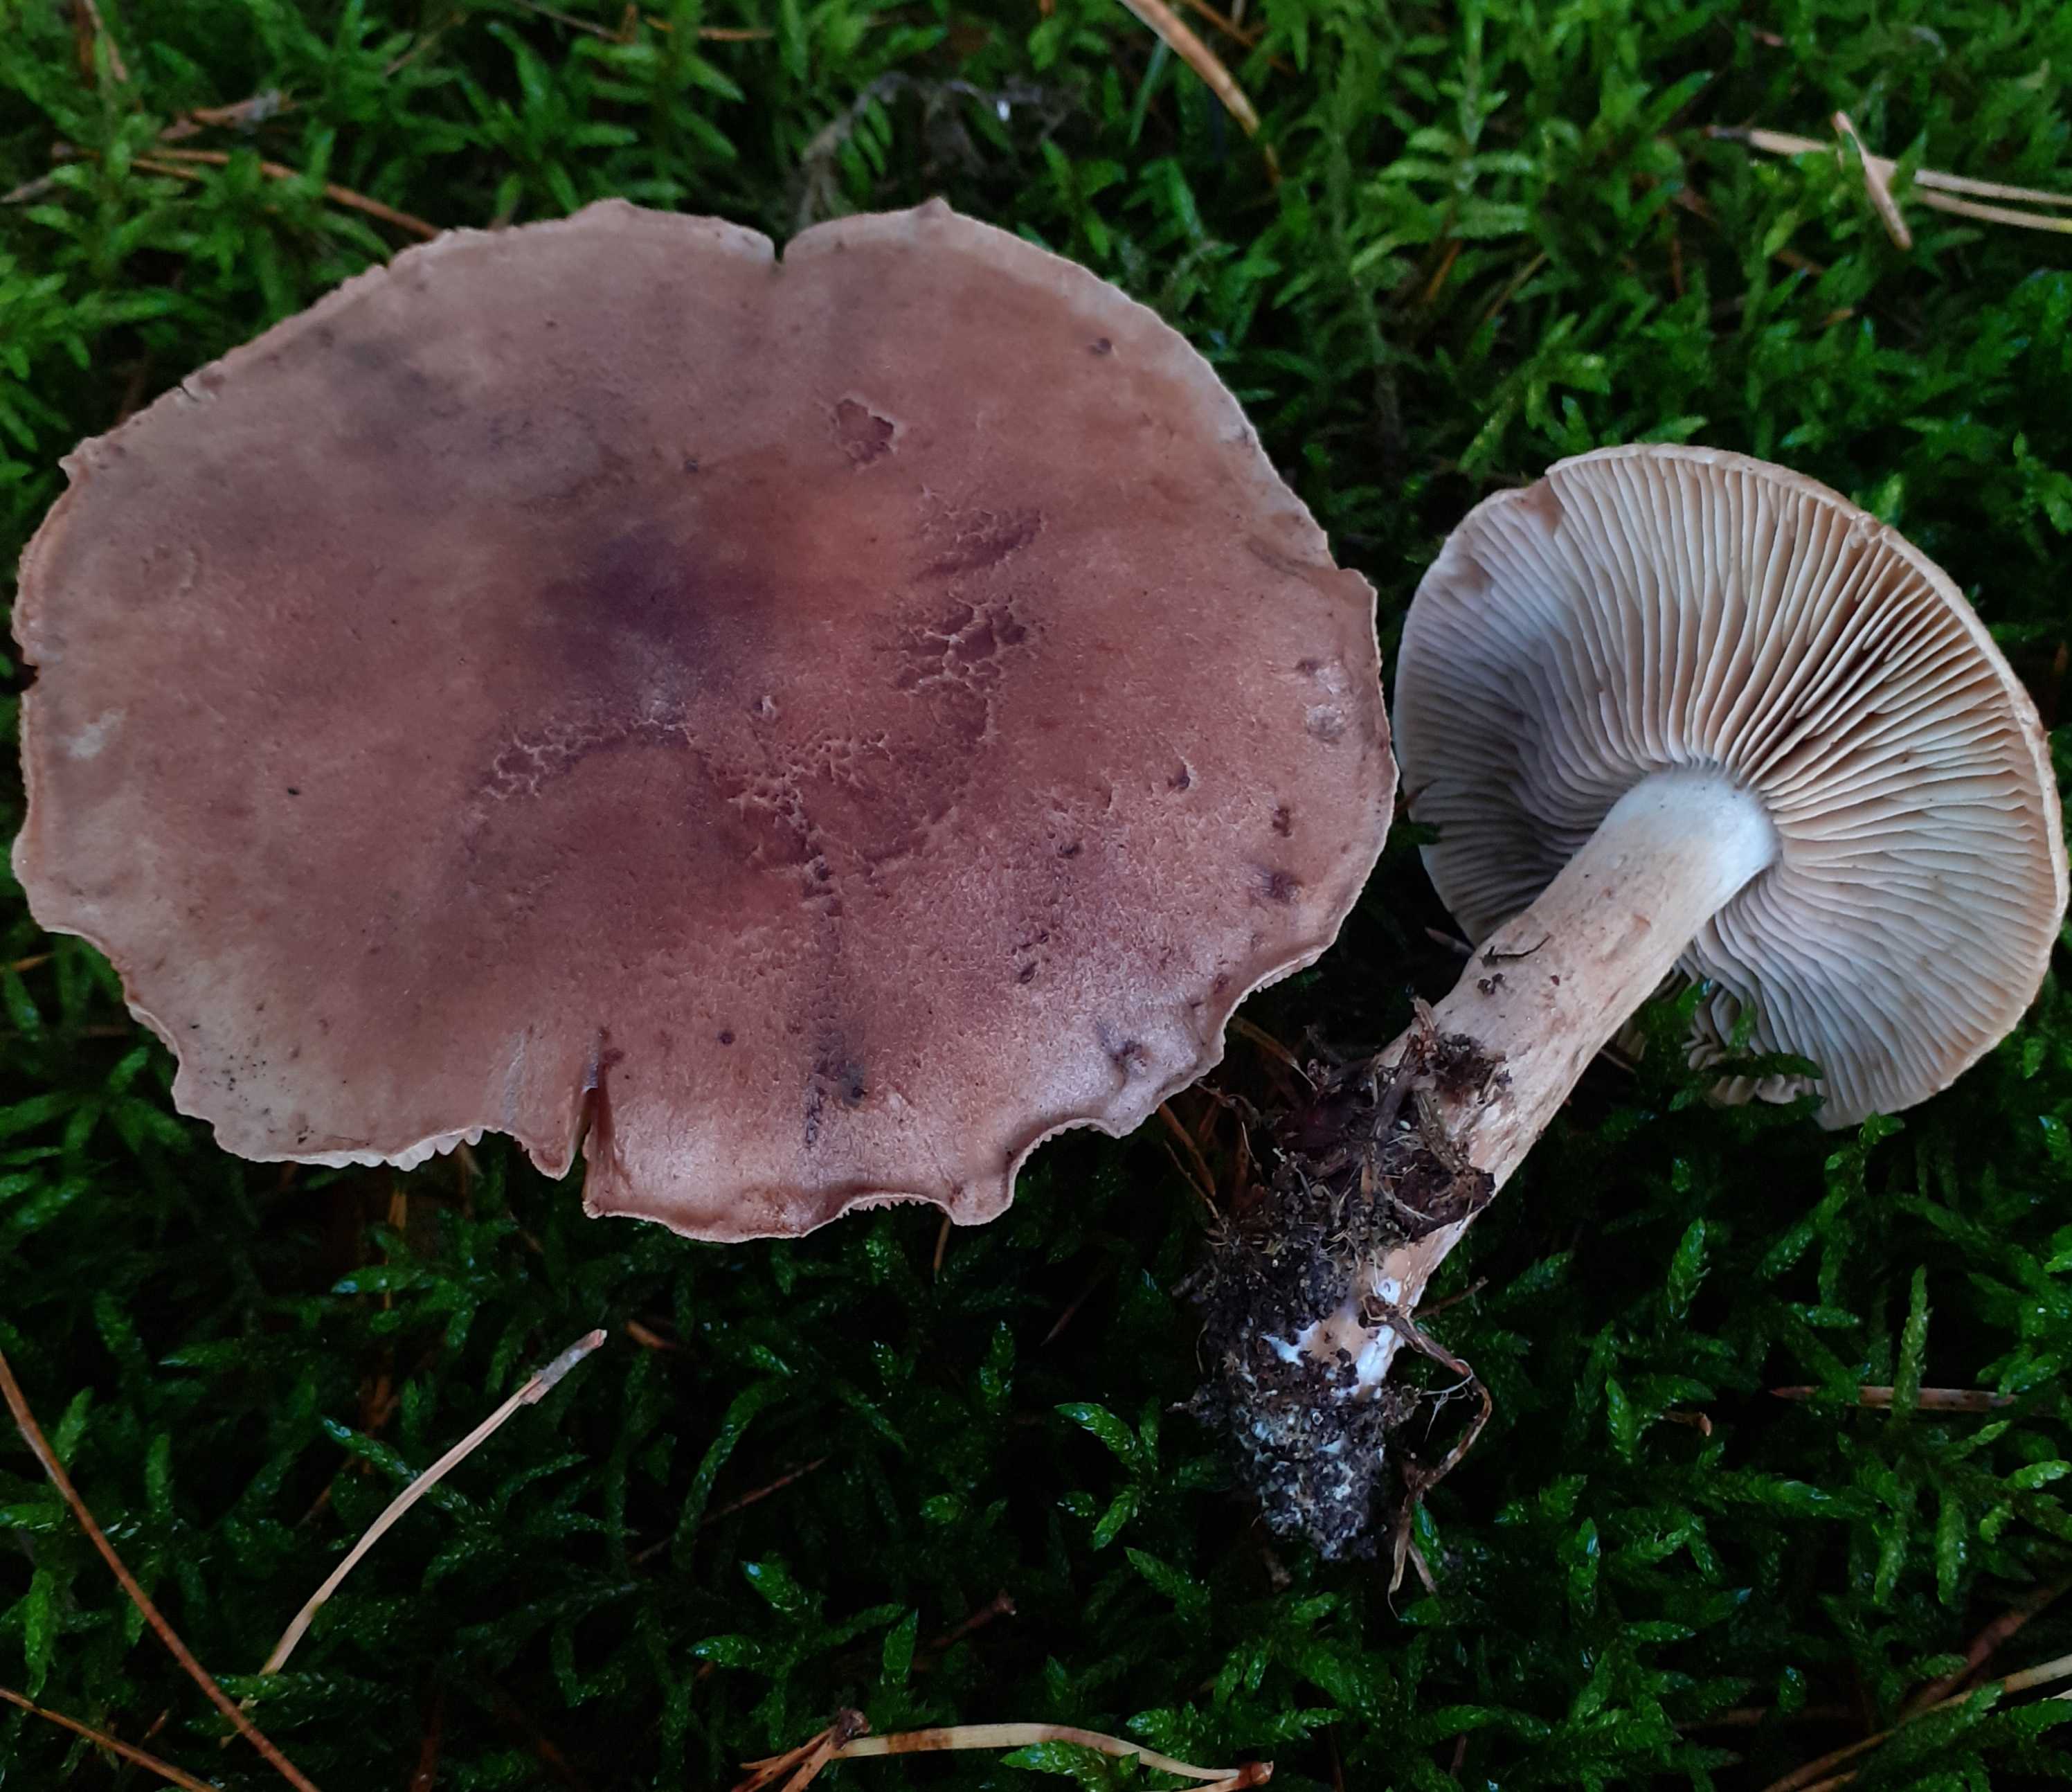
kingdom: Fungi
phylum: Basidiomycota
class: Agaricomycetes
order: Agaricales
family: Tricholomataceae
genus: Tricholoma
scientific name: Tricholoma imbricatum
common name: skællet ridderhat
